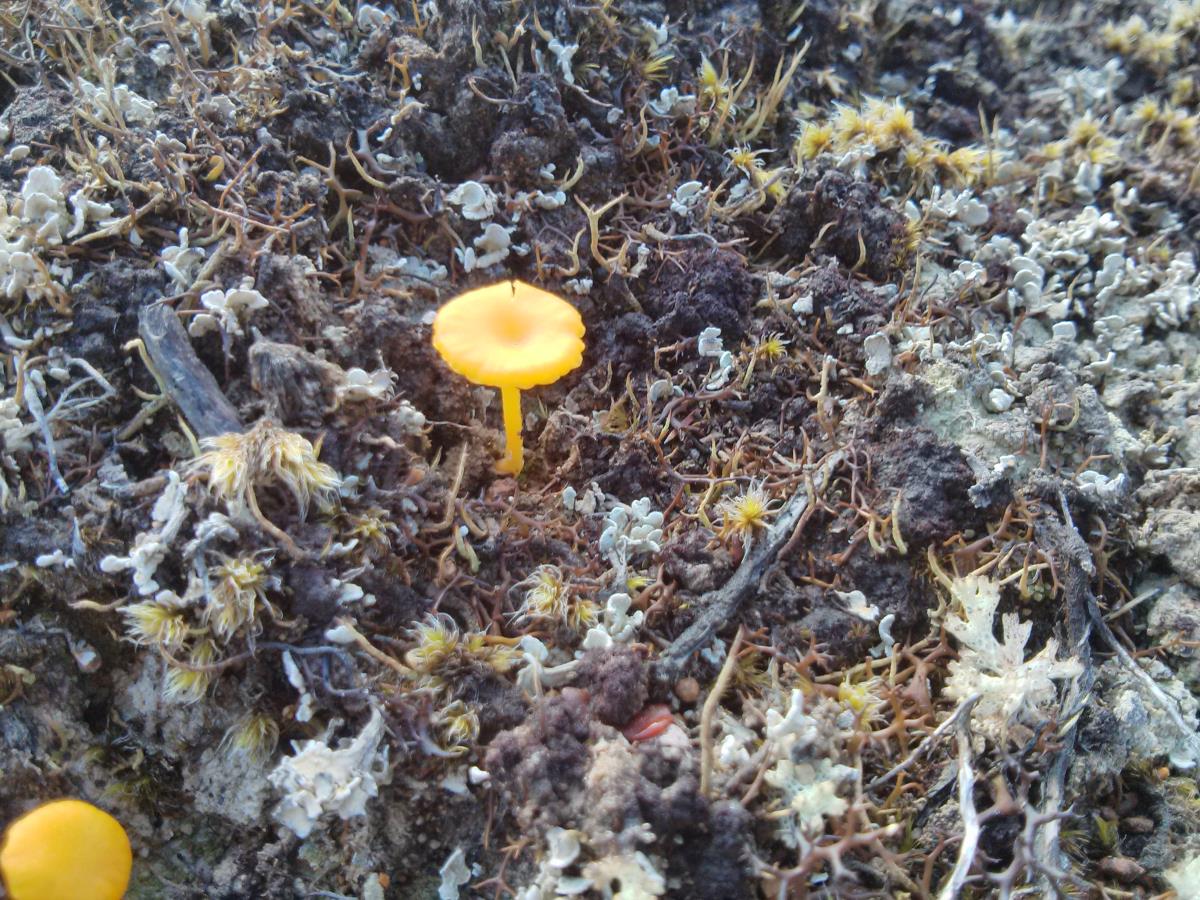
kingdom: Fungi
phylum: Basidiomycota
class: Agaricomycetes
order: Agaricales
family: Hygrophoraceae
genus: Lichenomphalia
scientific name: Lichenomphalia
